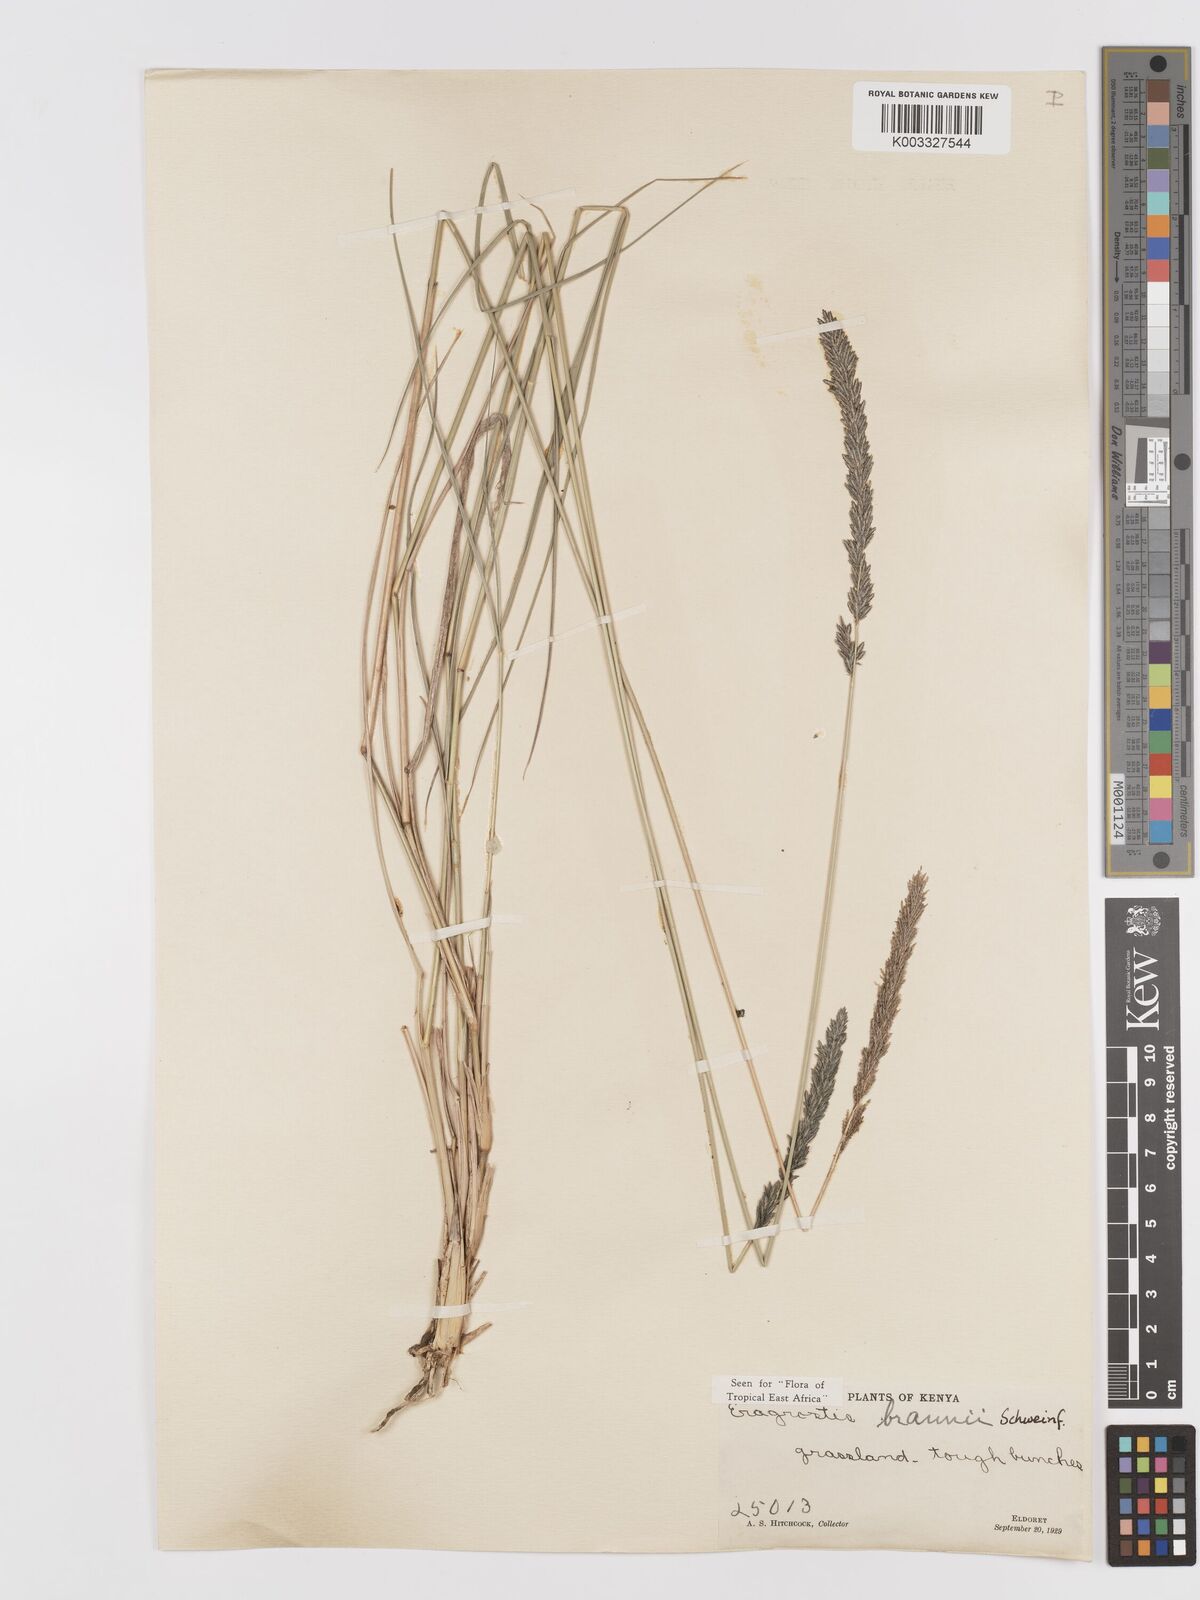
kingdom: Plantae
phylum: Tracheophyta
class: Liliopsida
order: Poales
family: Poaceae
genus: Eragrostis
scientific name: Eragrostis braunii
